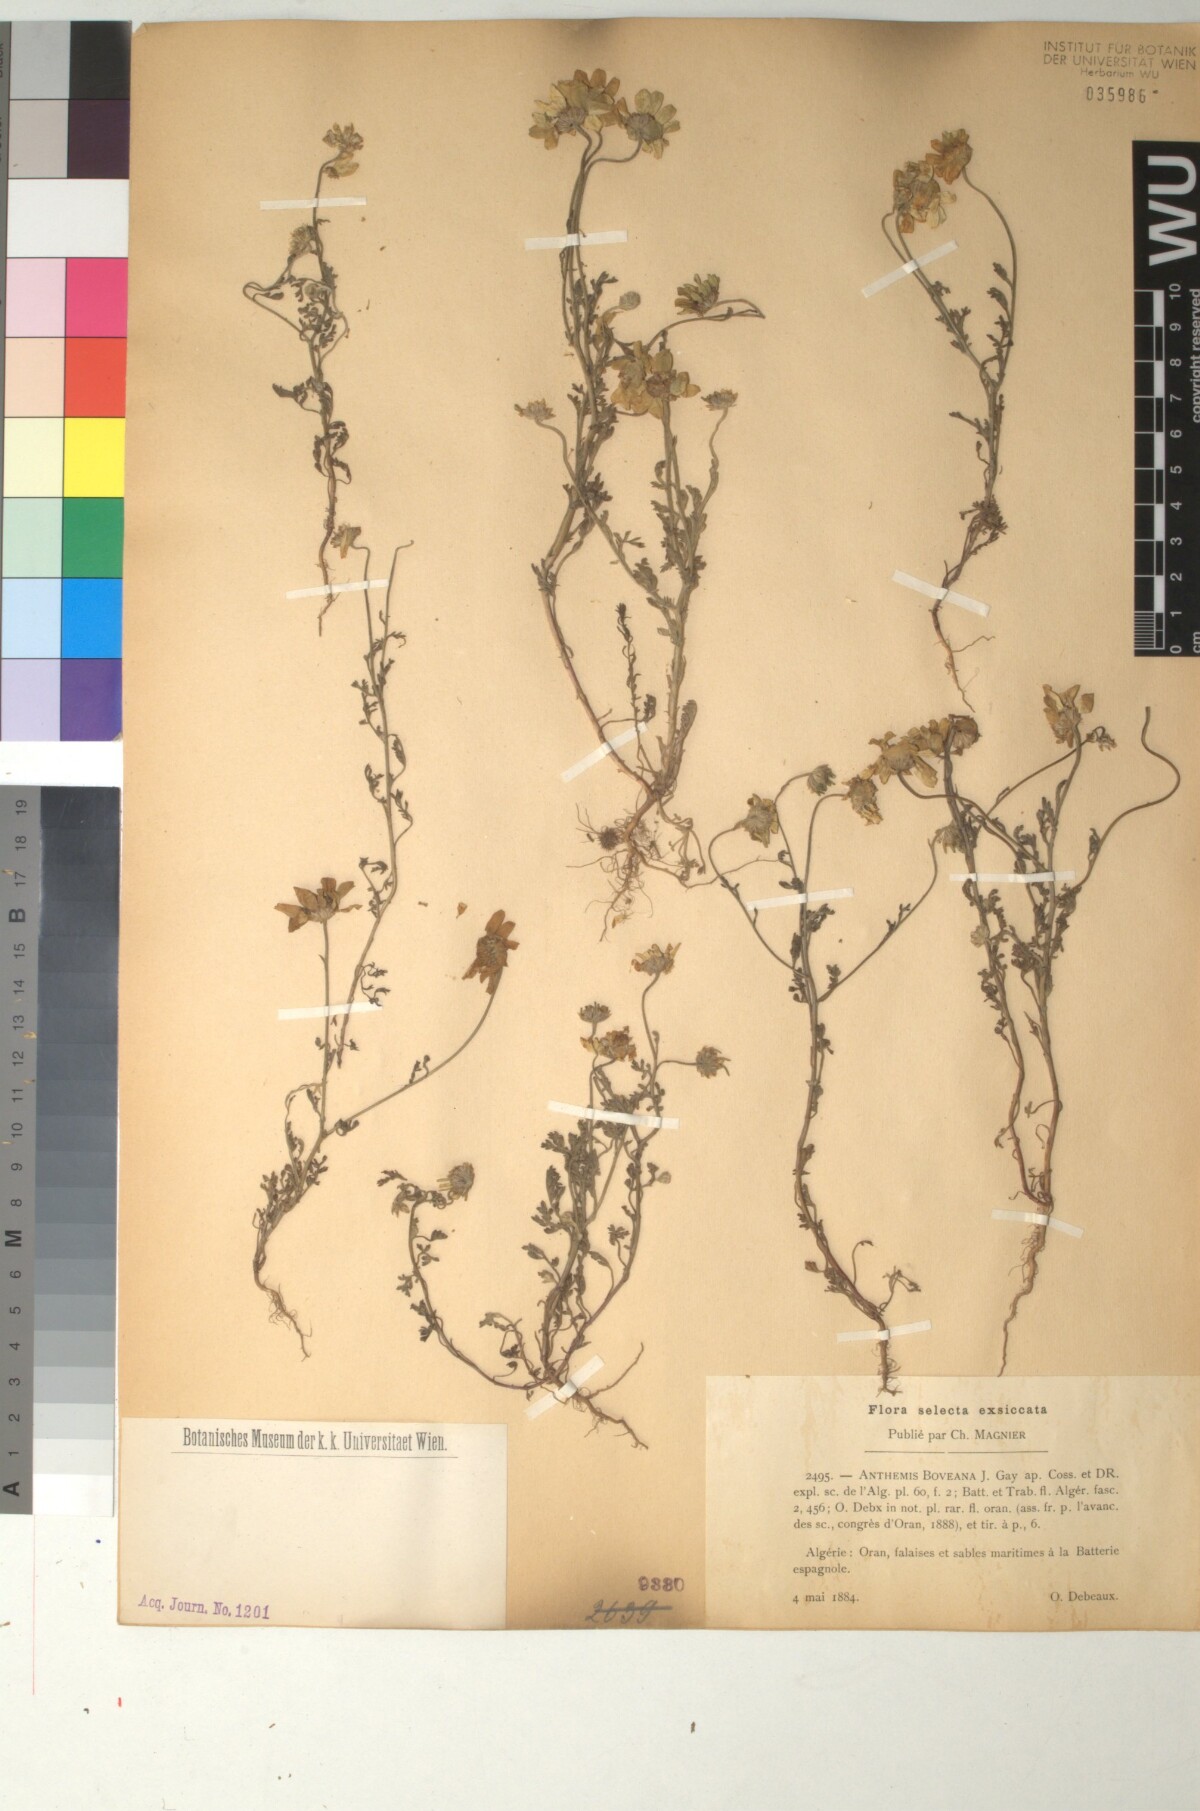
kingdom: Plantae
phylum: Tracheophyta
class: Magnoliopsida
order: Asterales
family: Asteraceae
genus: Anthemis
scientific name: Anthemis boveana
